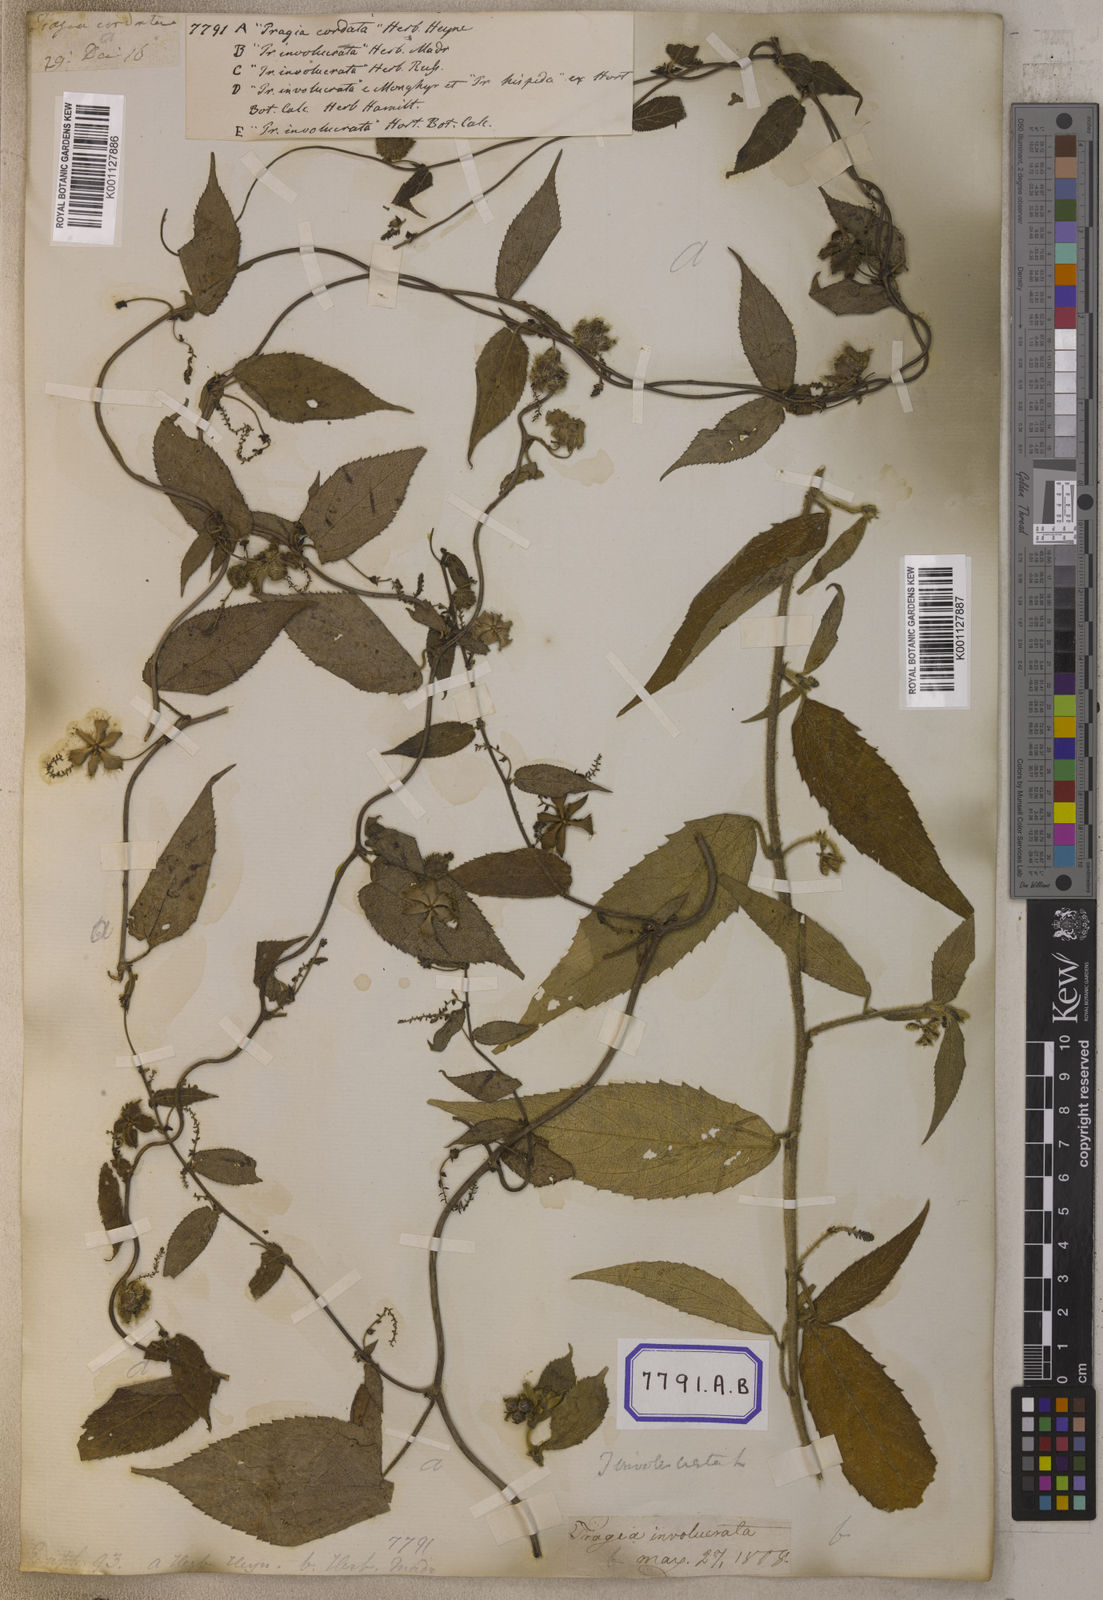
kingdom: Plantae
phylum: Tracheophyta
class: Magnoliopsida
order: Malpighiales
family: Euphorbiaceae
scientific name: Euphorbiaceae
